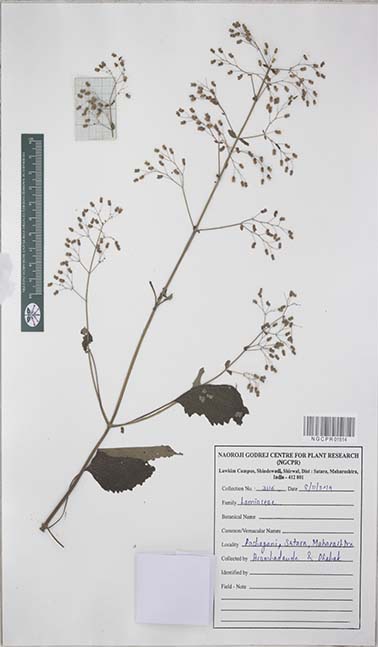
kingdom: Plantae
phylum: Tracheophyta
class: Magnoliopsida
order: Lamiales
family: Lamiaceae
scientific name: Lamiaceae
